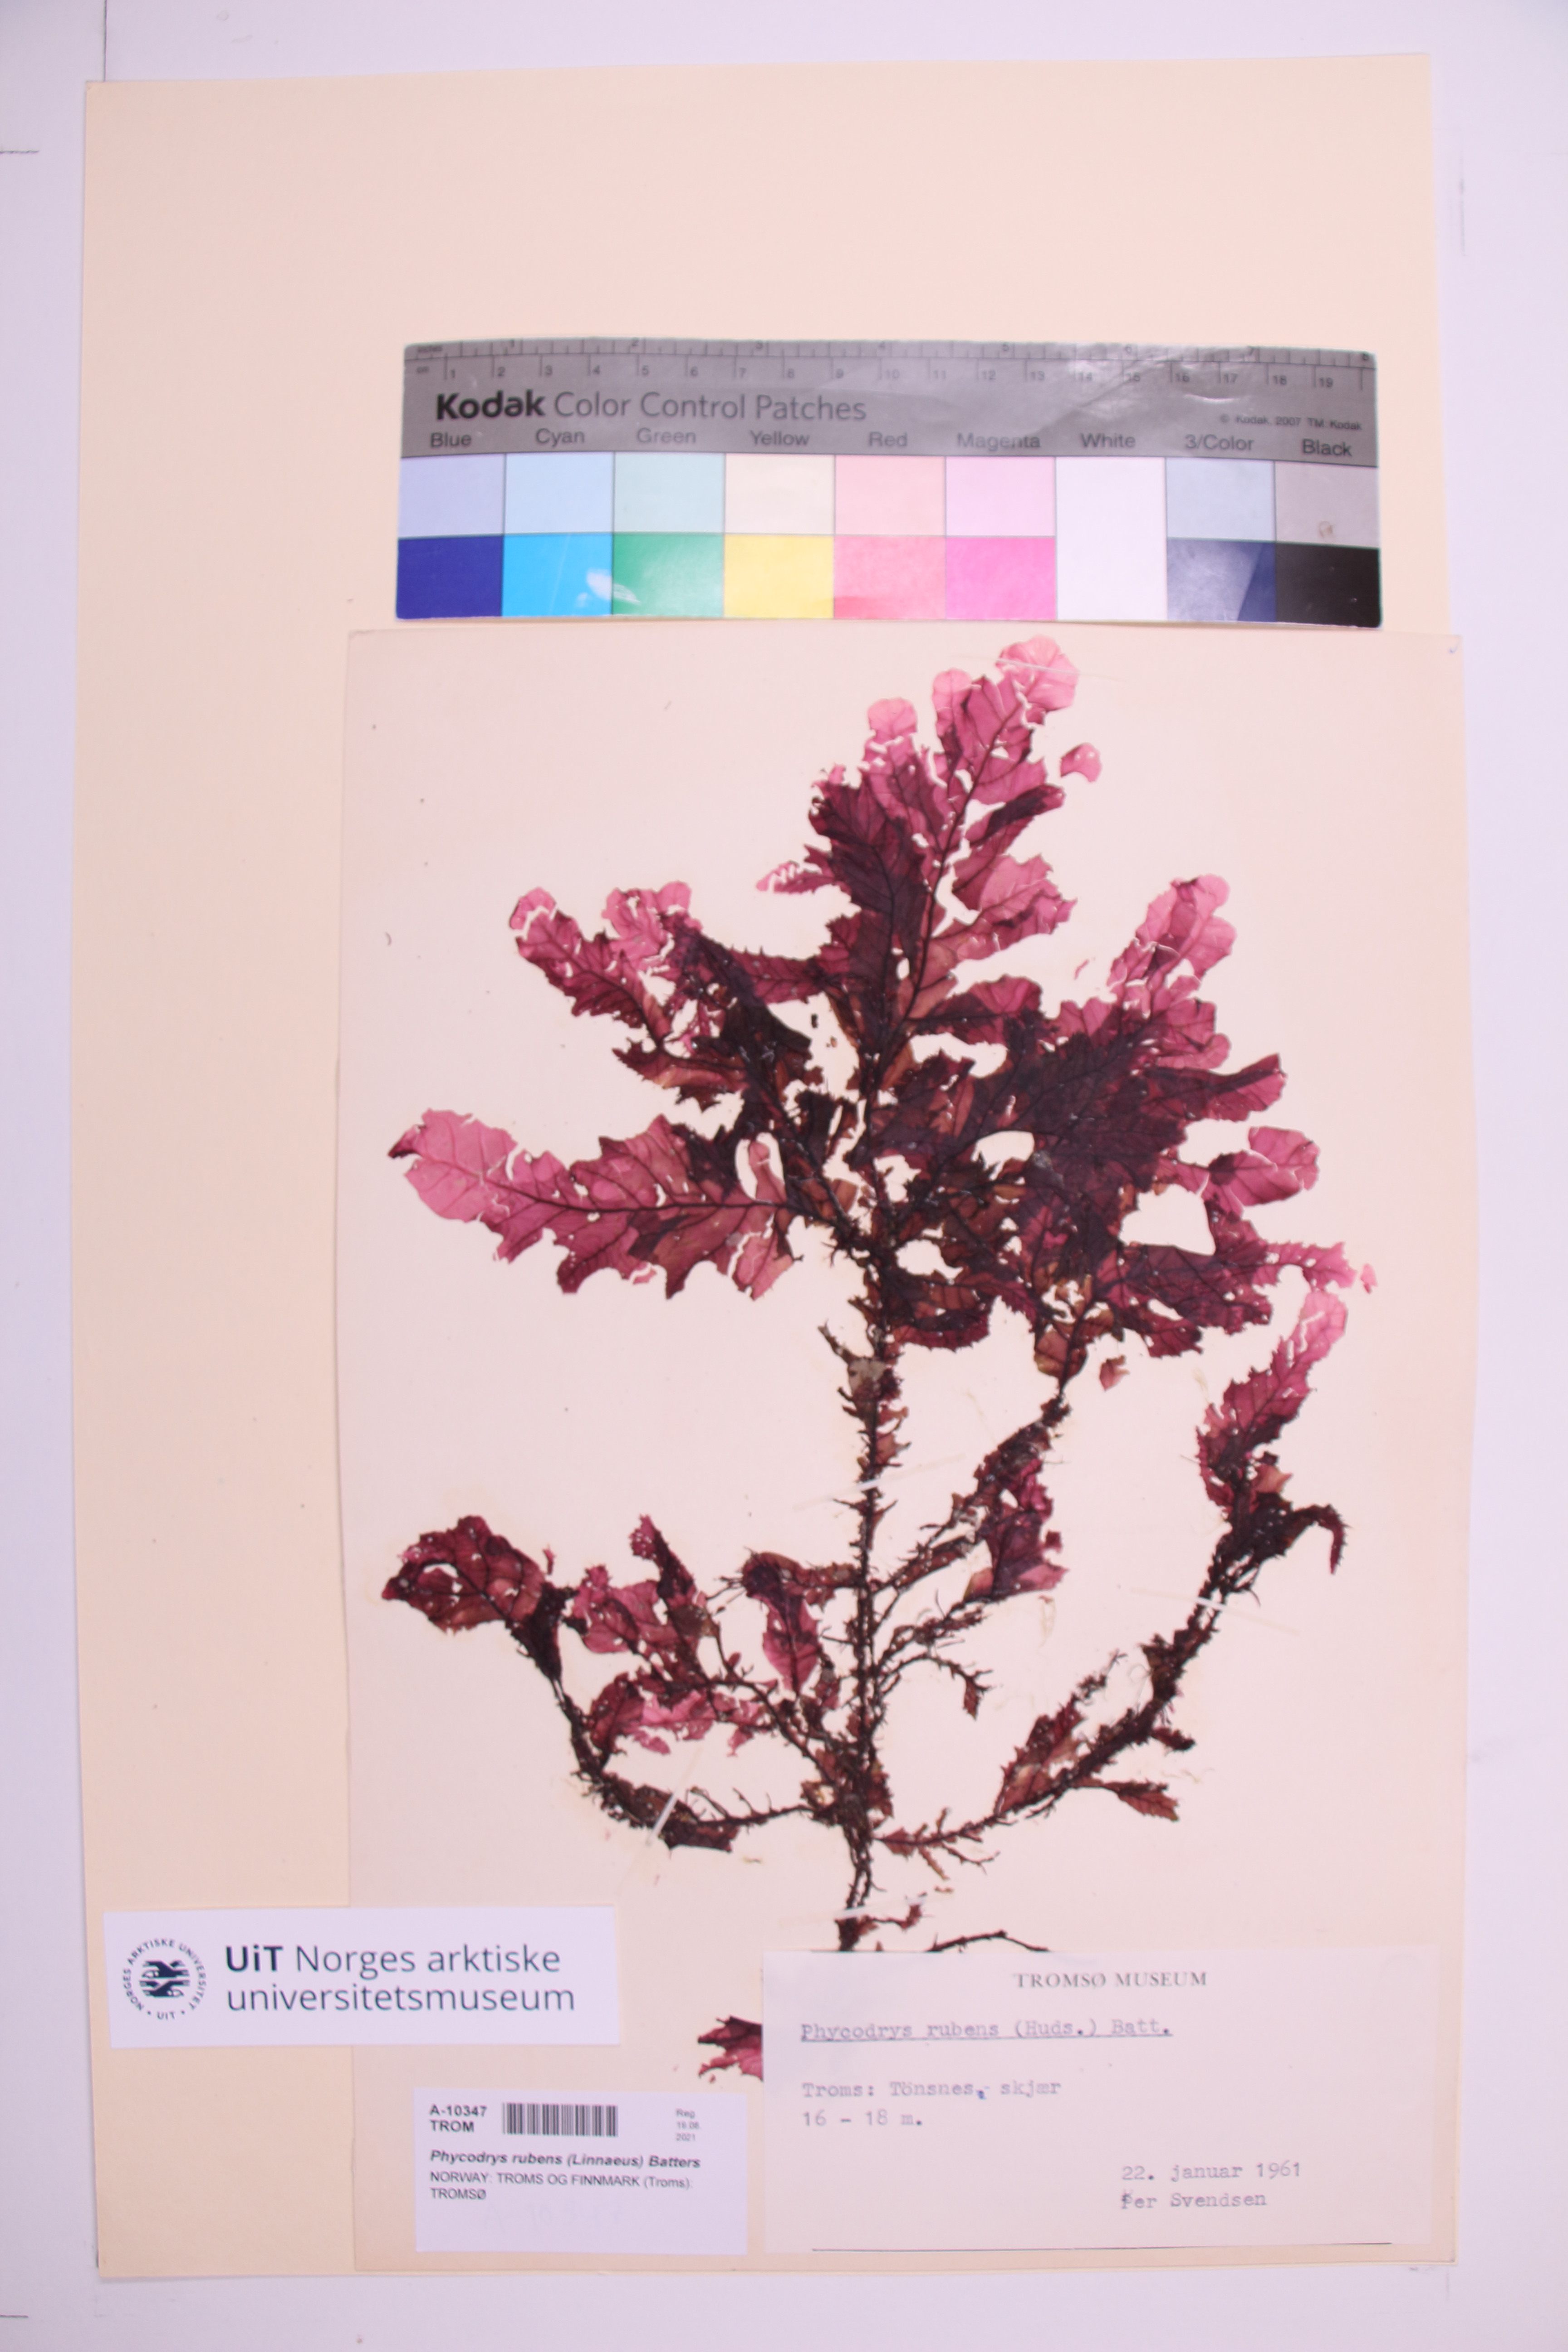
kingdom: Plantae
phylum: Rhodophyta
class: Florideophyceae
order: Ceramiales
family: Delesseriaceae
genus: Phycodrys
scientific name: Phycodrys rubens
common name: Sea oak
